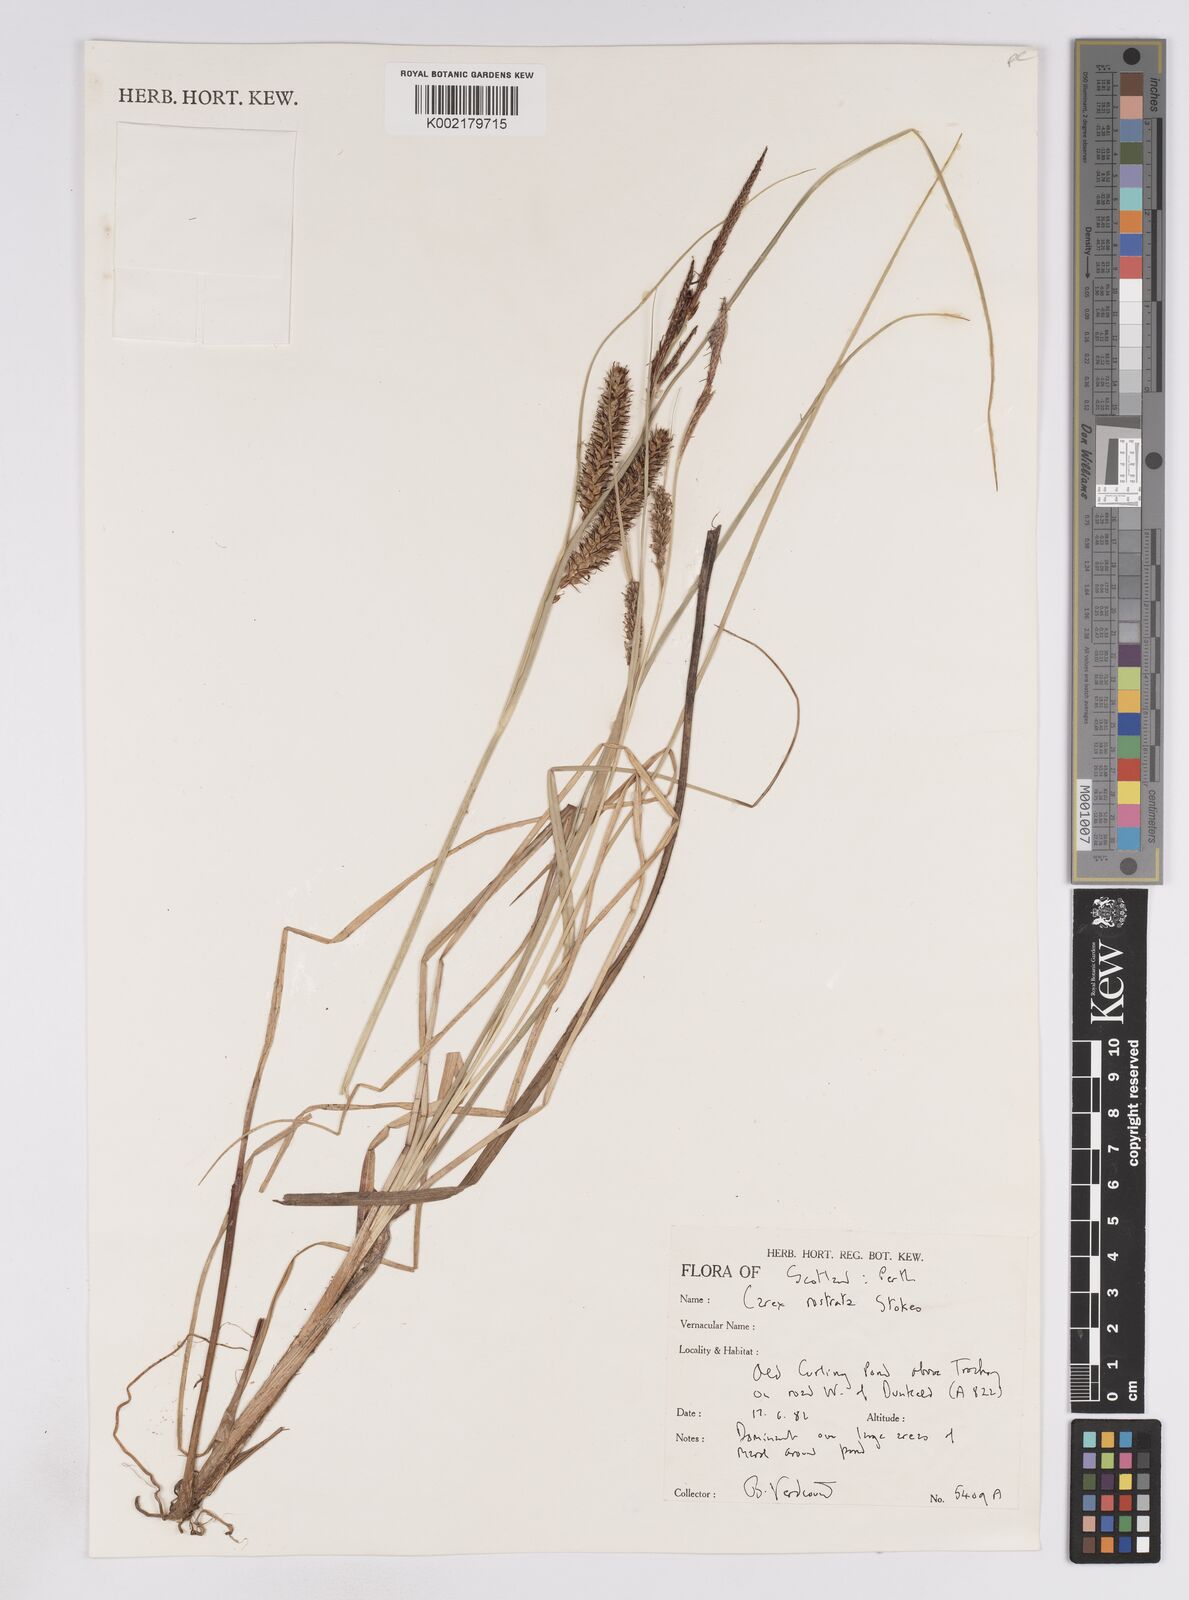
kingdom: Plantae
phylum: Tracheophyta
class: Liliopsida
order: Poales
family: Cyperaceae
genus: Carex
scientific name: Carex rostrata
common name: Bottle sedge
